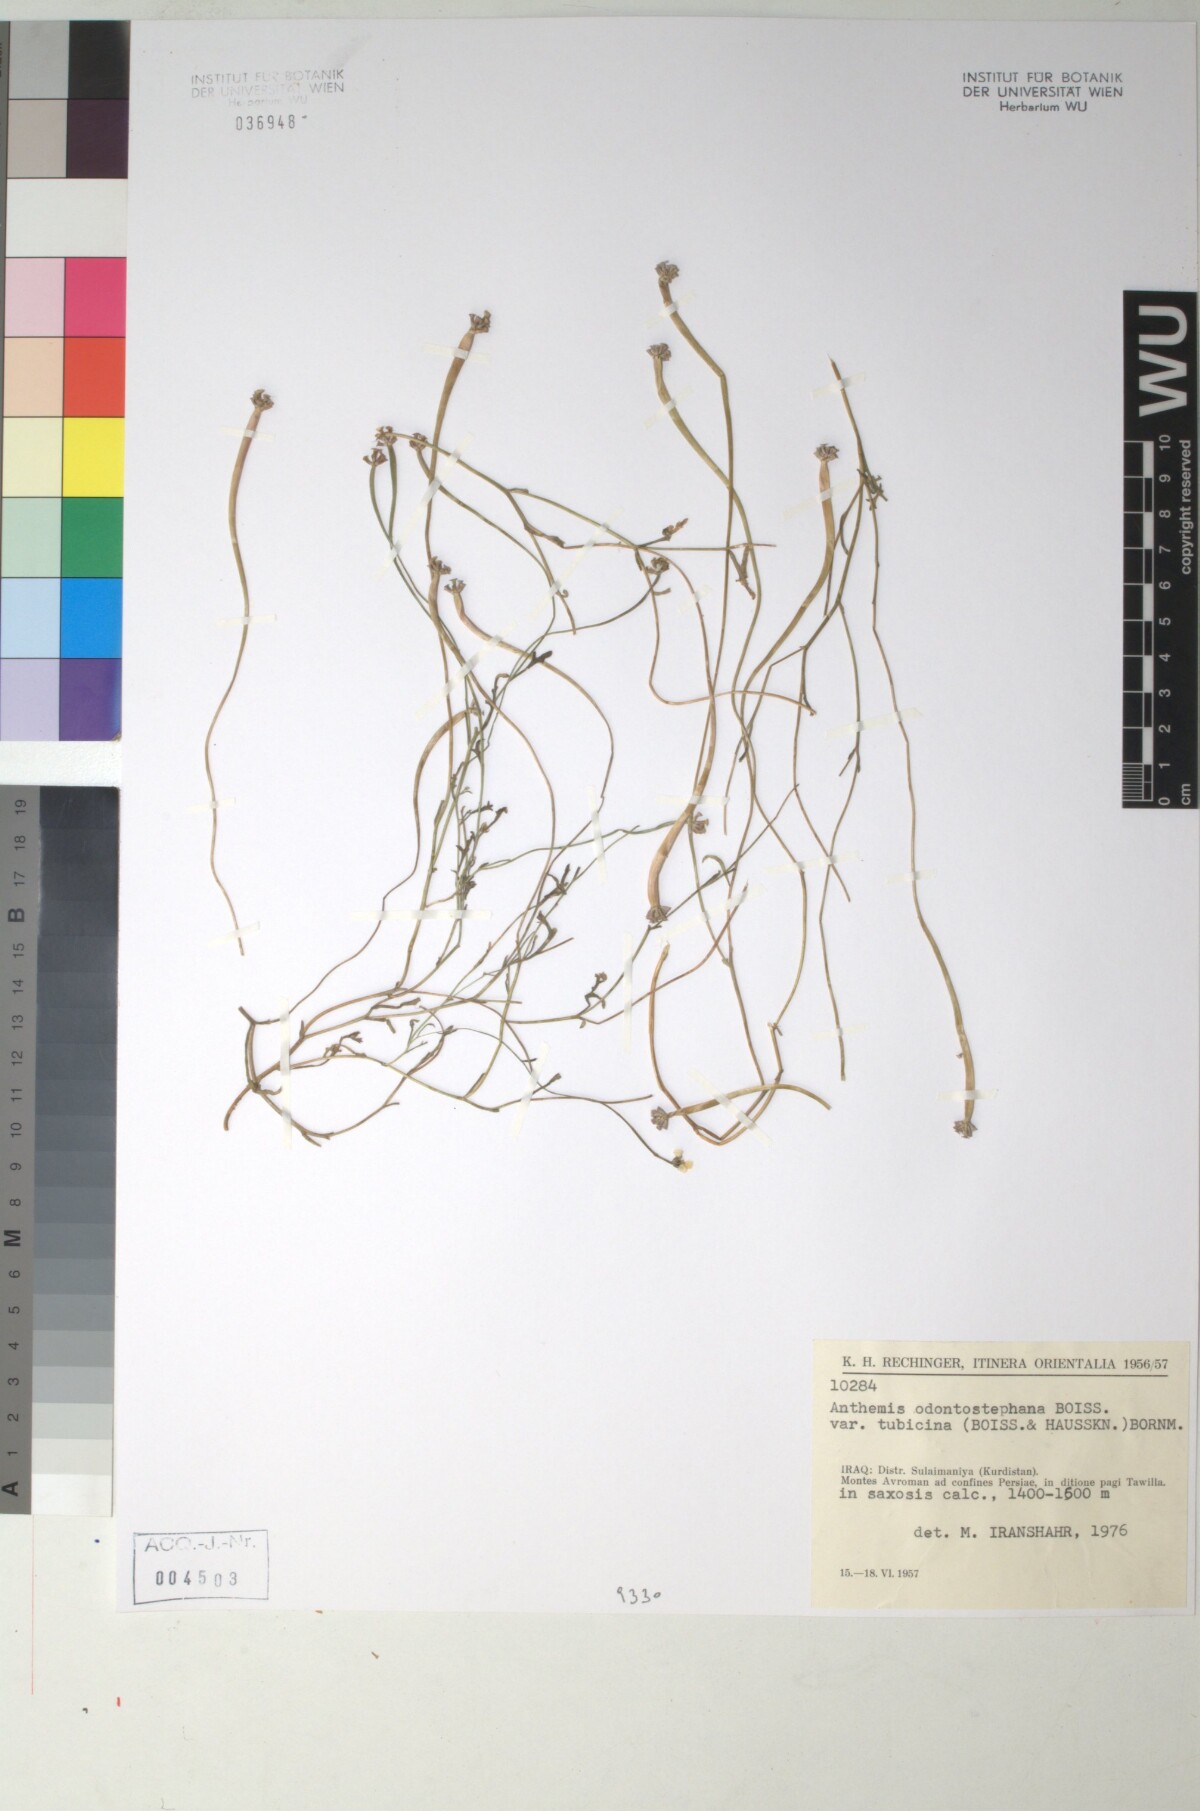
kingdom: Plantae
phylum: Tracheophyta
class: Magnoliopsida
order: Asterales
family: Asteraceae
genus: Anthemis
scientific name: Anthemis tubicina
